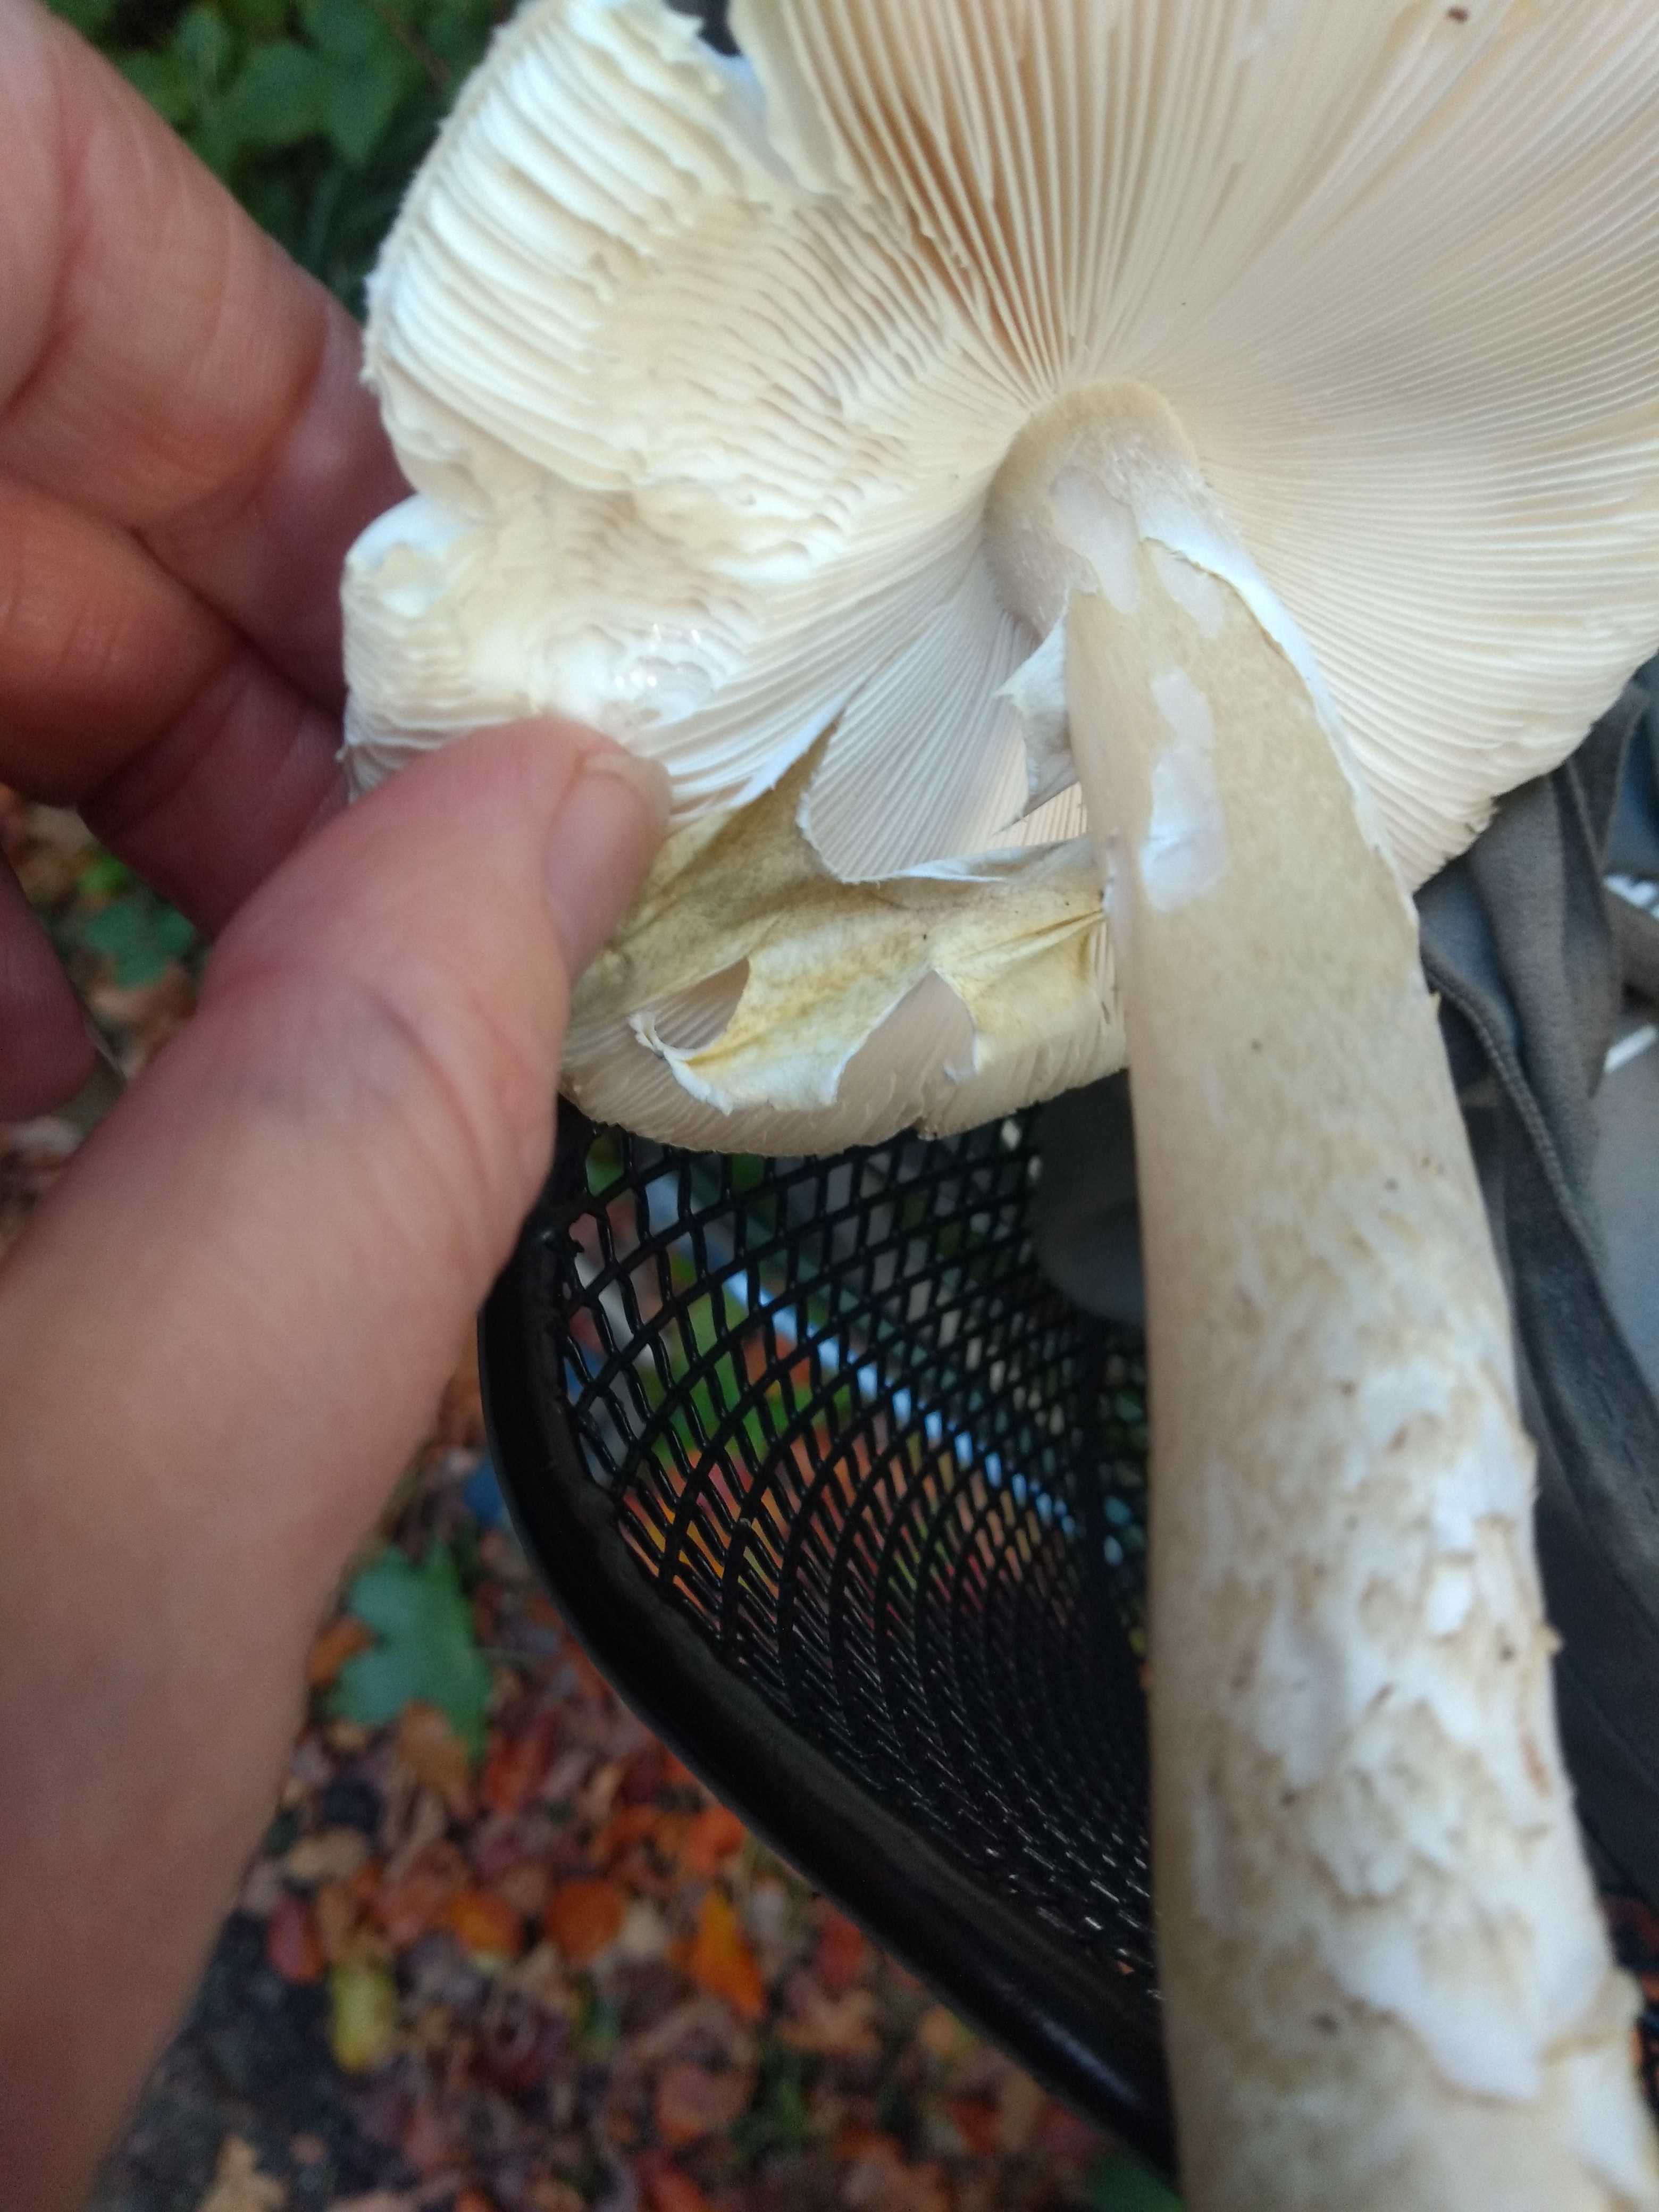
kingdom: Fungi
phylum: Basidiomycota
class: Agaricomycetes
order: Agaricales
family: Amanitaceae
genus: Amanita
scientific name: Amanita phalloides
